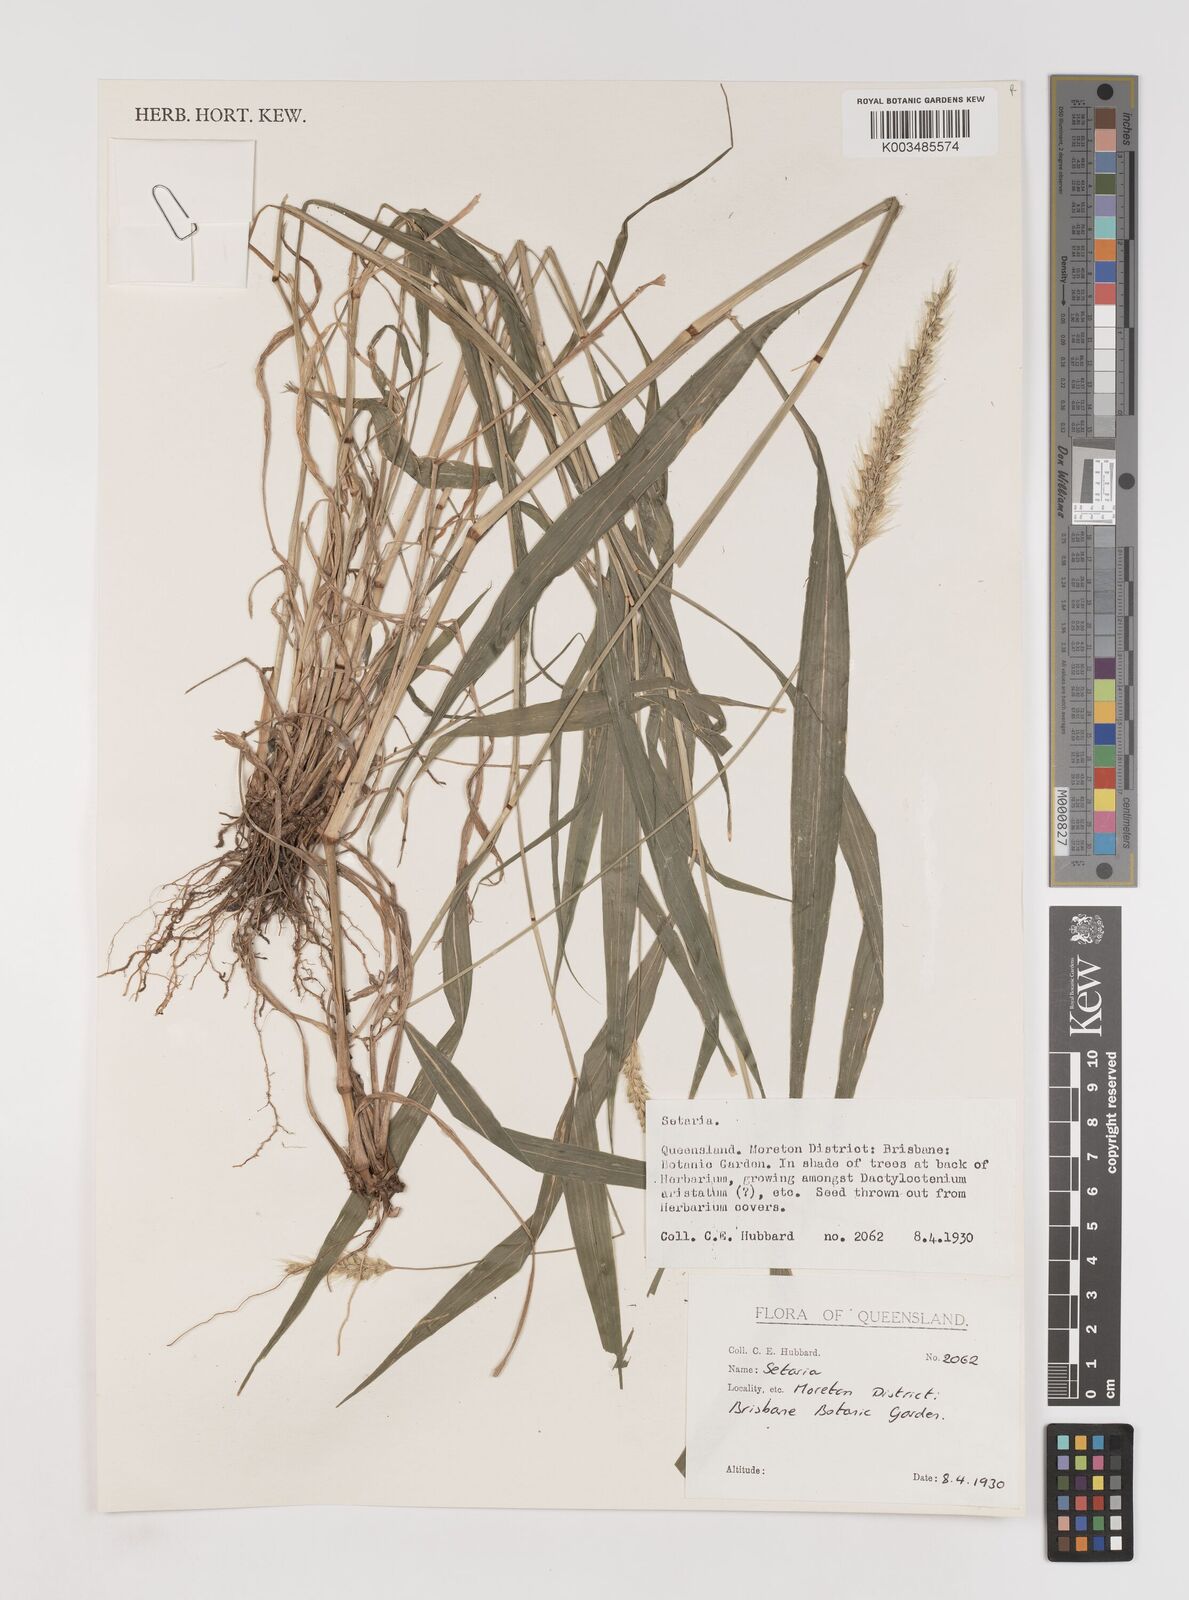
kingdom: Plantae
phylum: Tracheophyta
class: Liliopsida
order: Poales
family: Poaceae
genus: Setaria
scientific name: Setaria
